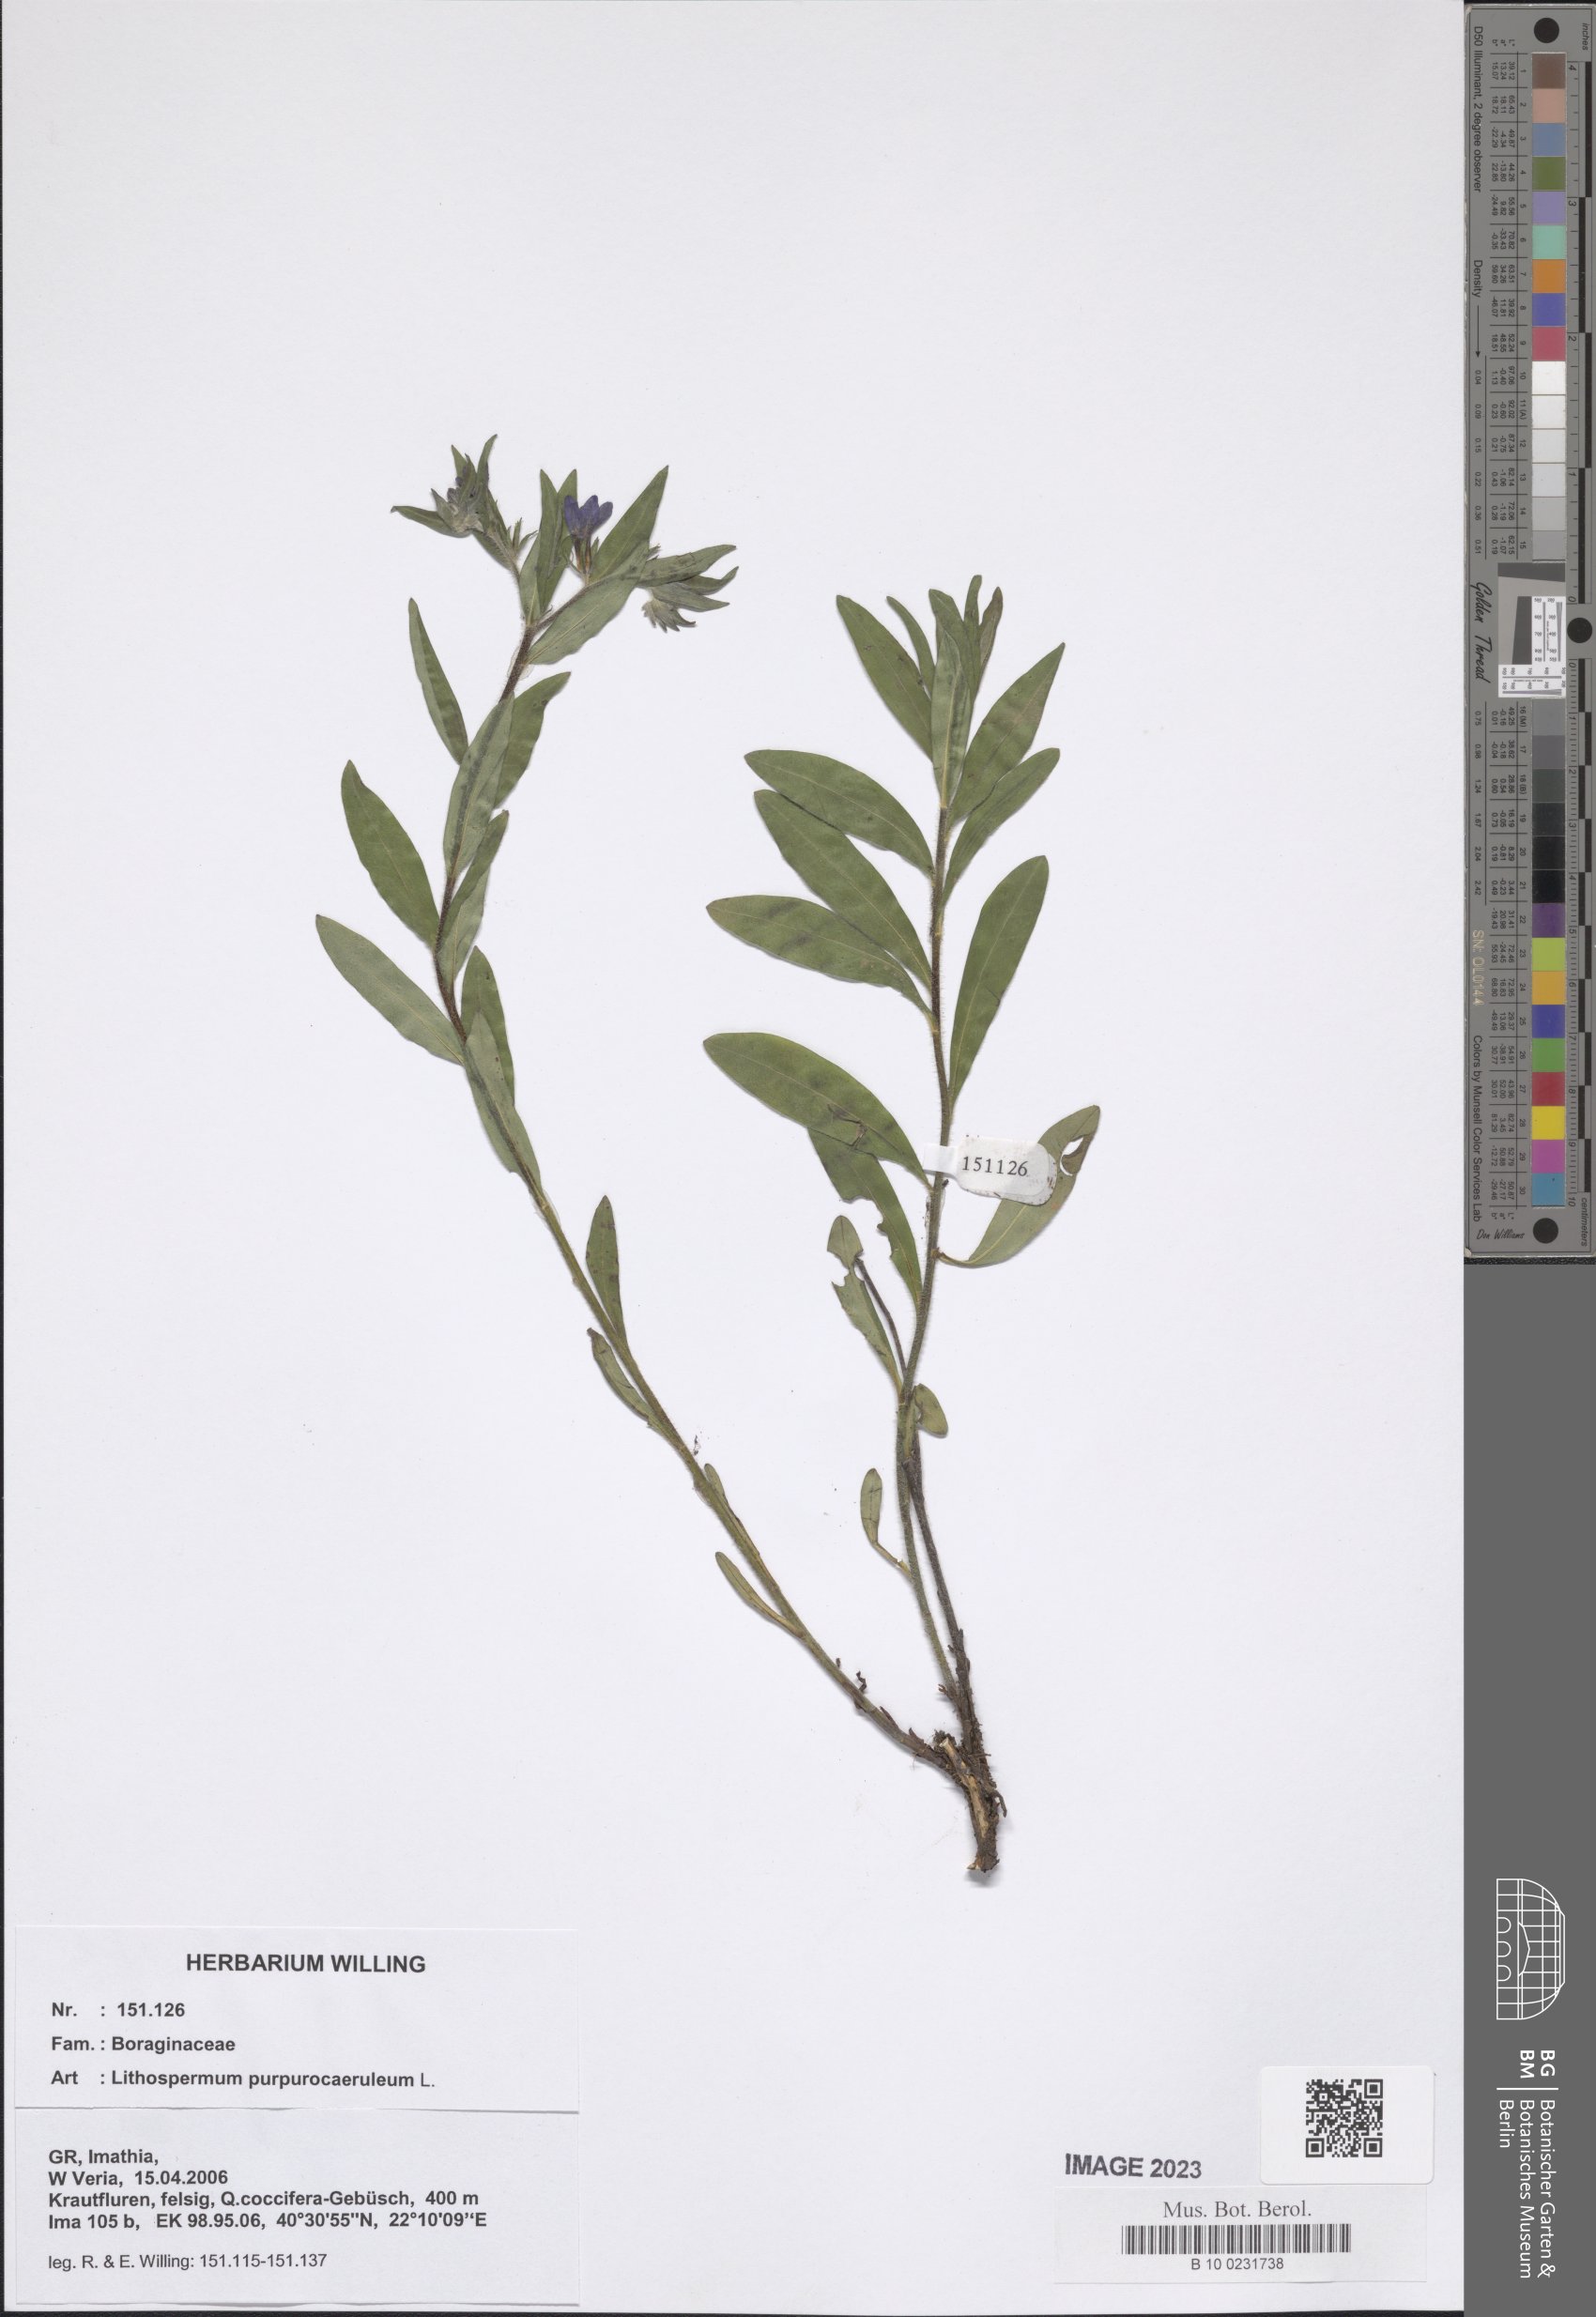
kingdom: Plantae
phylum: Tracheophyta
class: Magnoliopsida
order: Boraginales
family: Boraginaceae
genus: Aegonychon
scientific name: Aegonychon purpurocaeruleum
